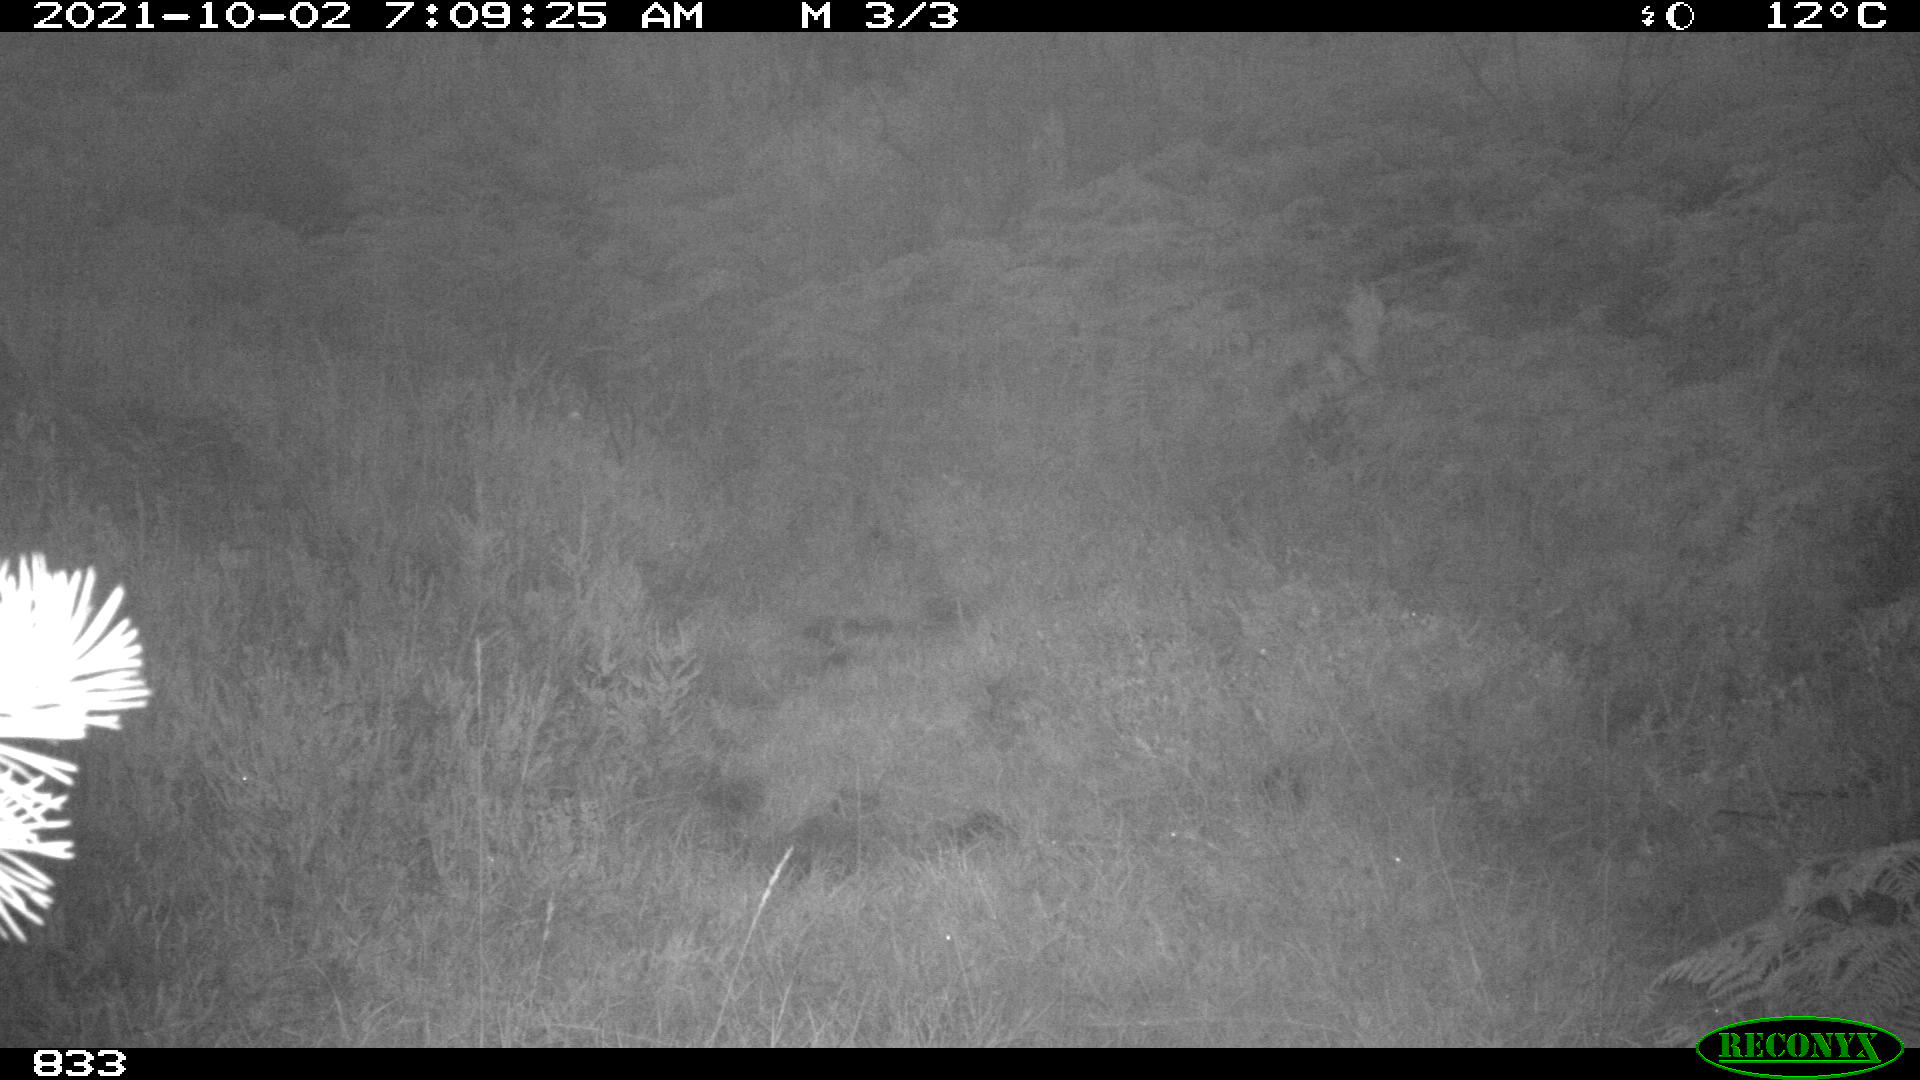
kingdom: Animalia
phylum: Chordata
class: Mammalia
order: Artiodactyla
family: Cervidae
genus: Capreolus
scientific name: Capreolus capreolus
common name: Western roe deer
